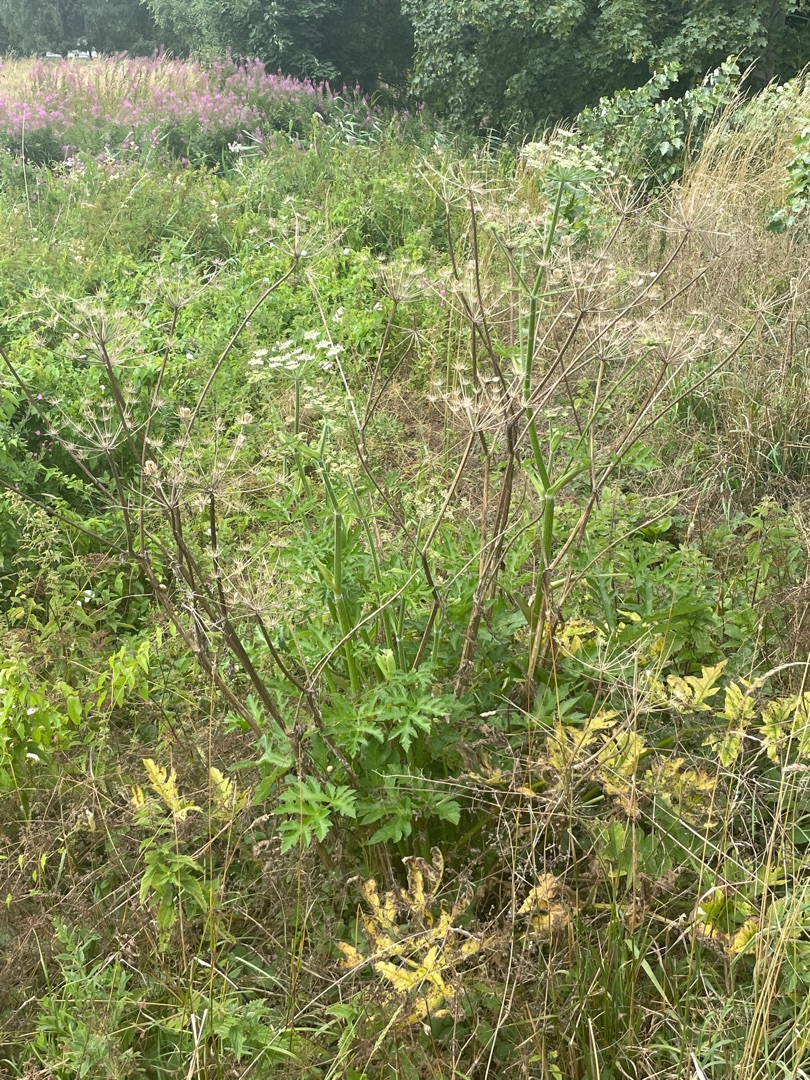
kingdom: Plantae
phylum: Tracheophyta
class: Magnoliopsida
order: Apiales
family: Apiaceae
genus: Heracleum
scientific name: Heracleum sphondylium
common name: Almindelig bjørneklo
